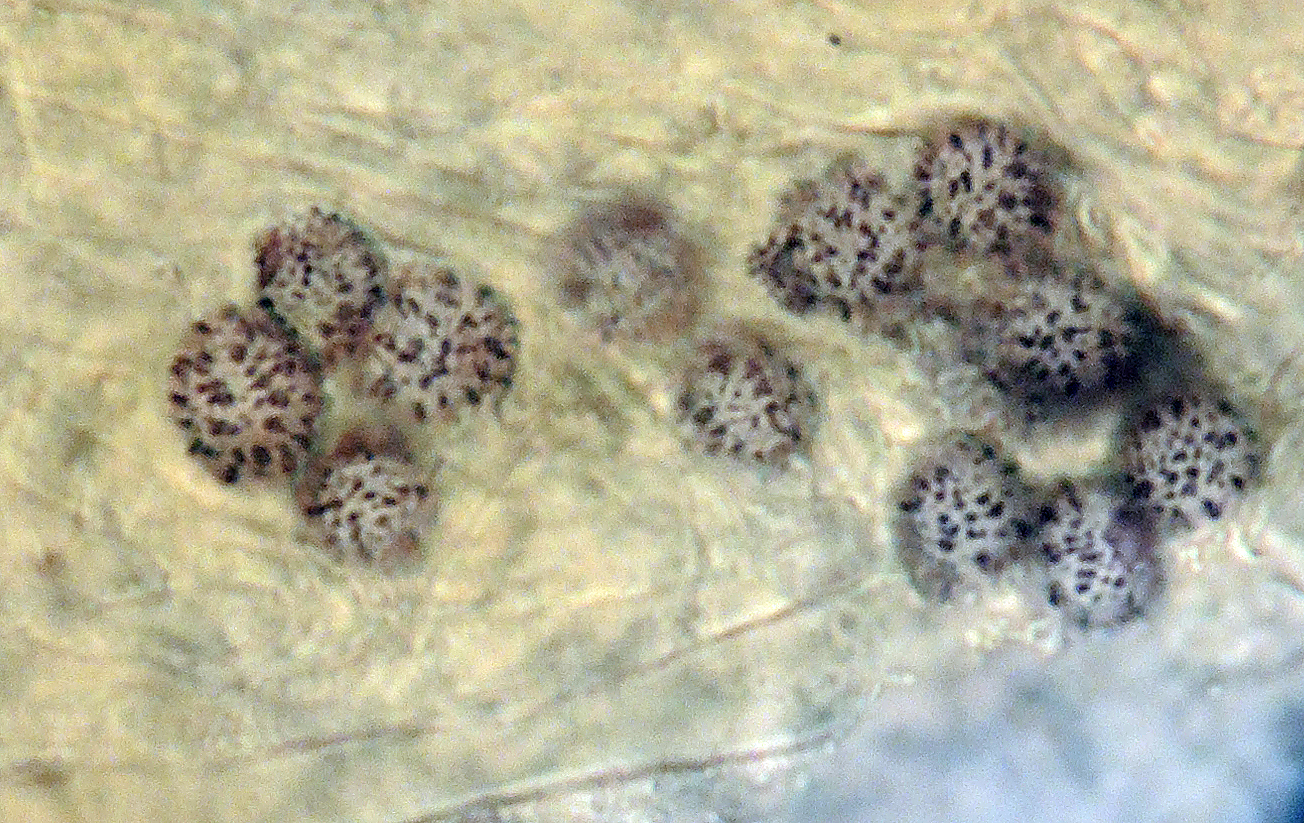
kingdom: Fungi
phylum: Basidiomycota
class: Agaricomycetes
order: Russulales
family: Russulaceae
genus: Russula
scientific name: Russula velenovskyi
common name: orangerød skørhat
